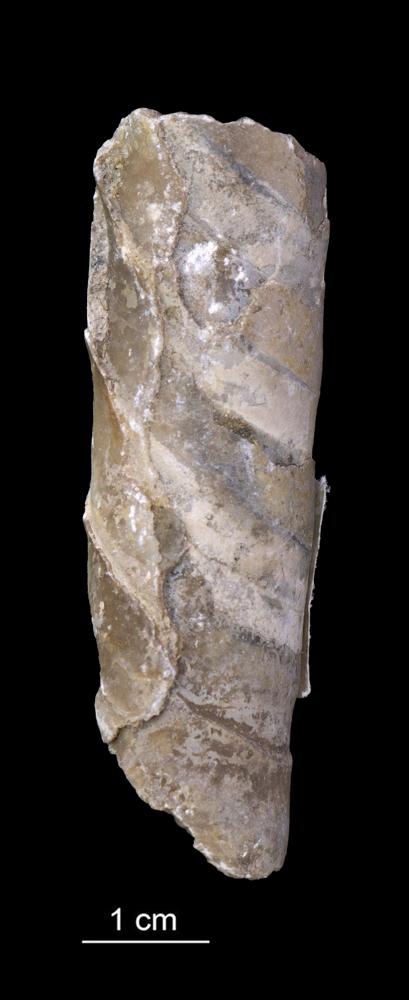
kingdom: Animalia
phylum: Mollusca
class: Cephalopoda
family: Estonioceratidae
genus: Estonioceras
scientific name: Estonioceras
